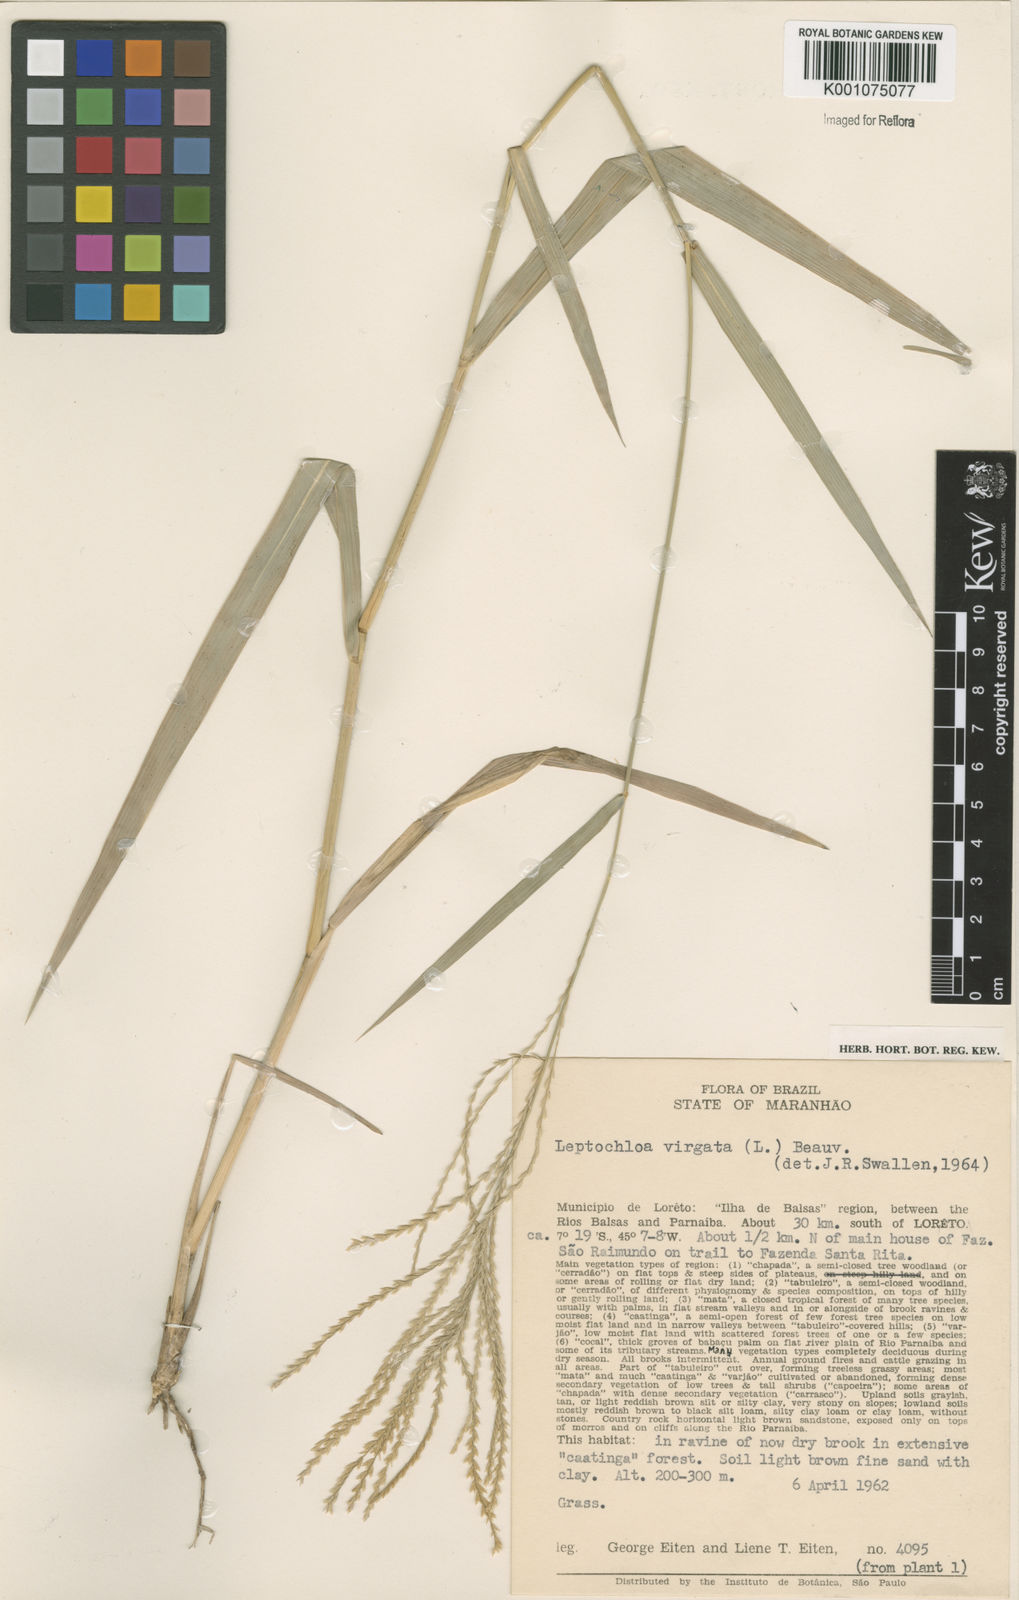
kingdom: Plantae
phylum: Tracheophyta
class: Liliopsida
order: Poales
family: Poaceae
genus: Leptochloa
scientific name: Leptochloa virgata
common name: Tropical sprangletop
